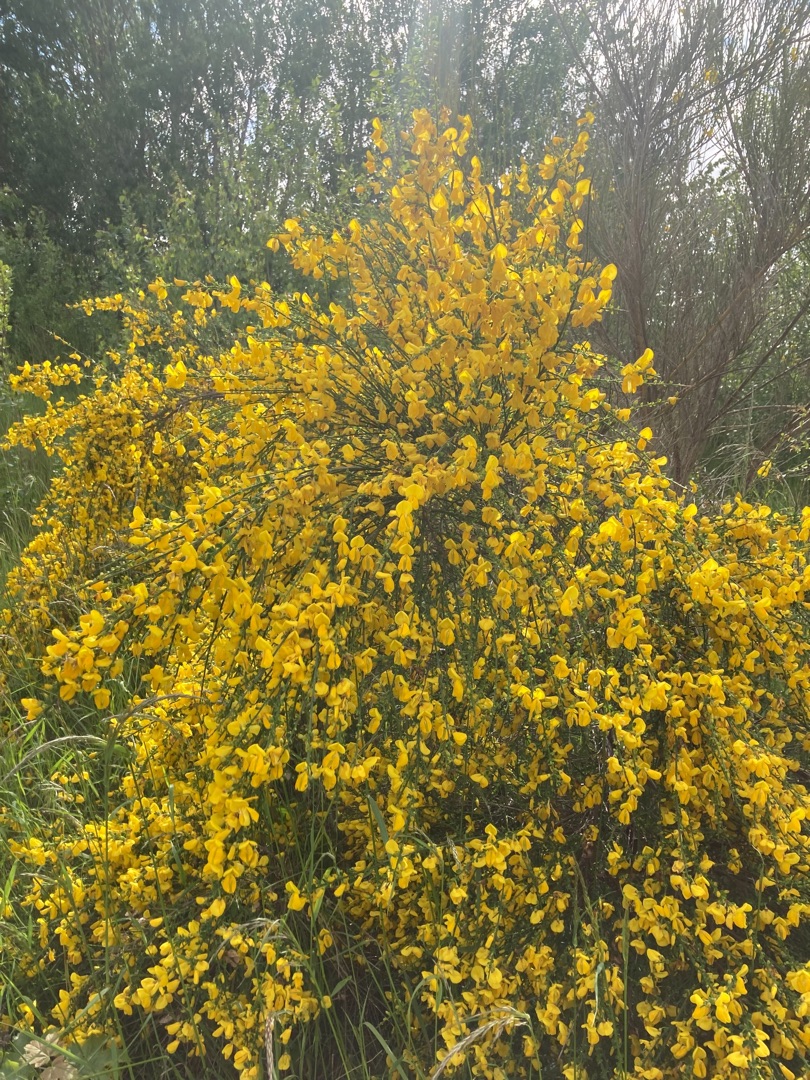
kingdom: Plantae
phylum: Tracheophyta
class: Magnoliopsida
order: Fabales
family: Fabaceae
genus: Cytisus
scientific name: Cytisus scoparius
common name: Almindelig gyvel
